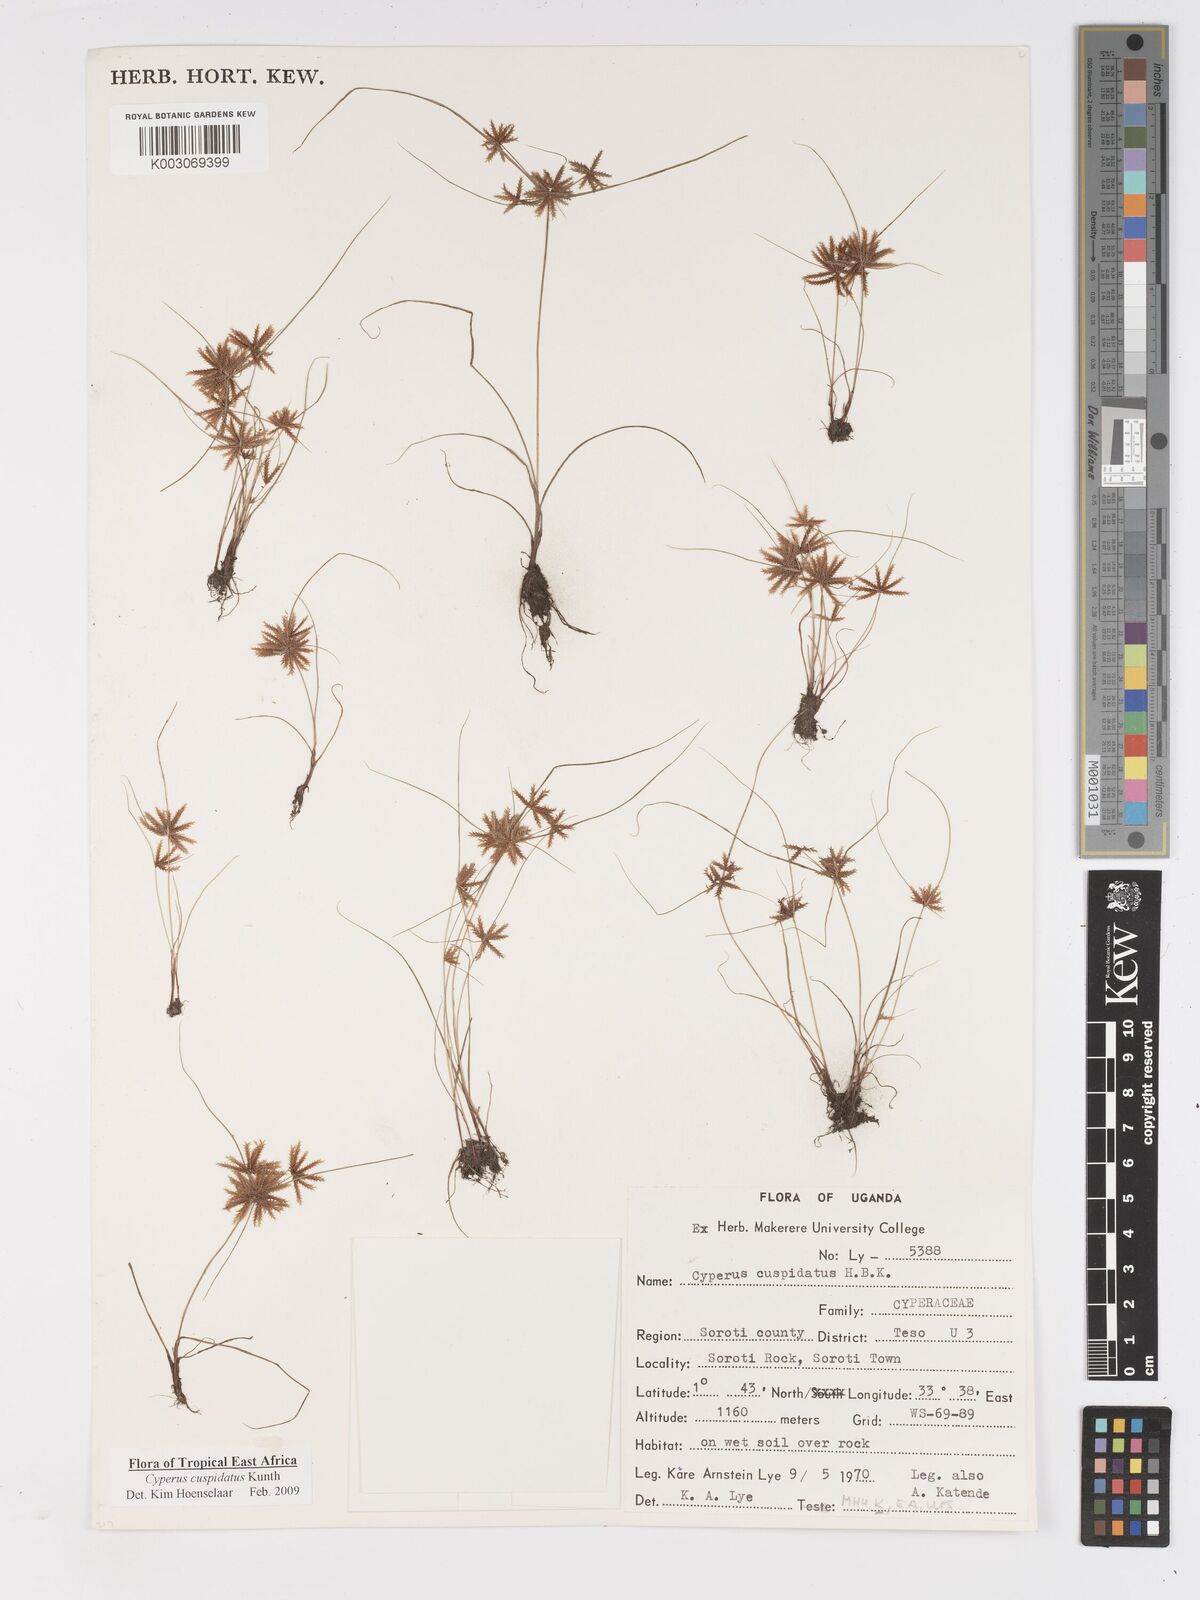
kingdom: Plantae
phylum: Tracheophyta
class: Liliopsida
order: Poales
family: Cyperaceae
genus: Cyperus
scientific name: Cyperus cuspidatus
